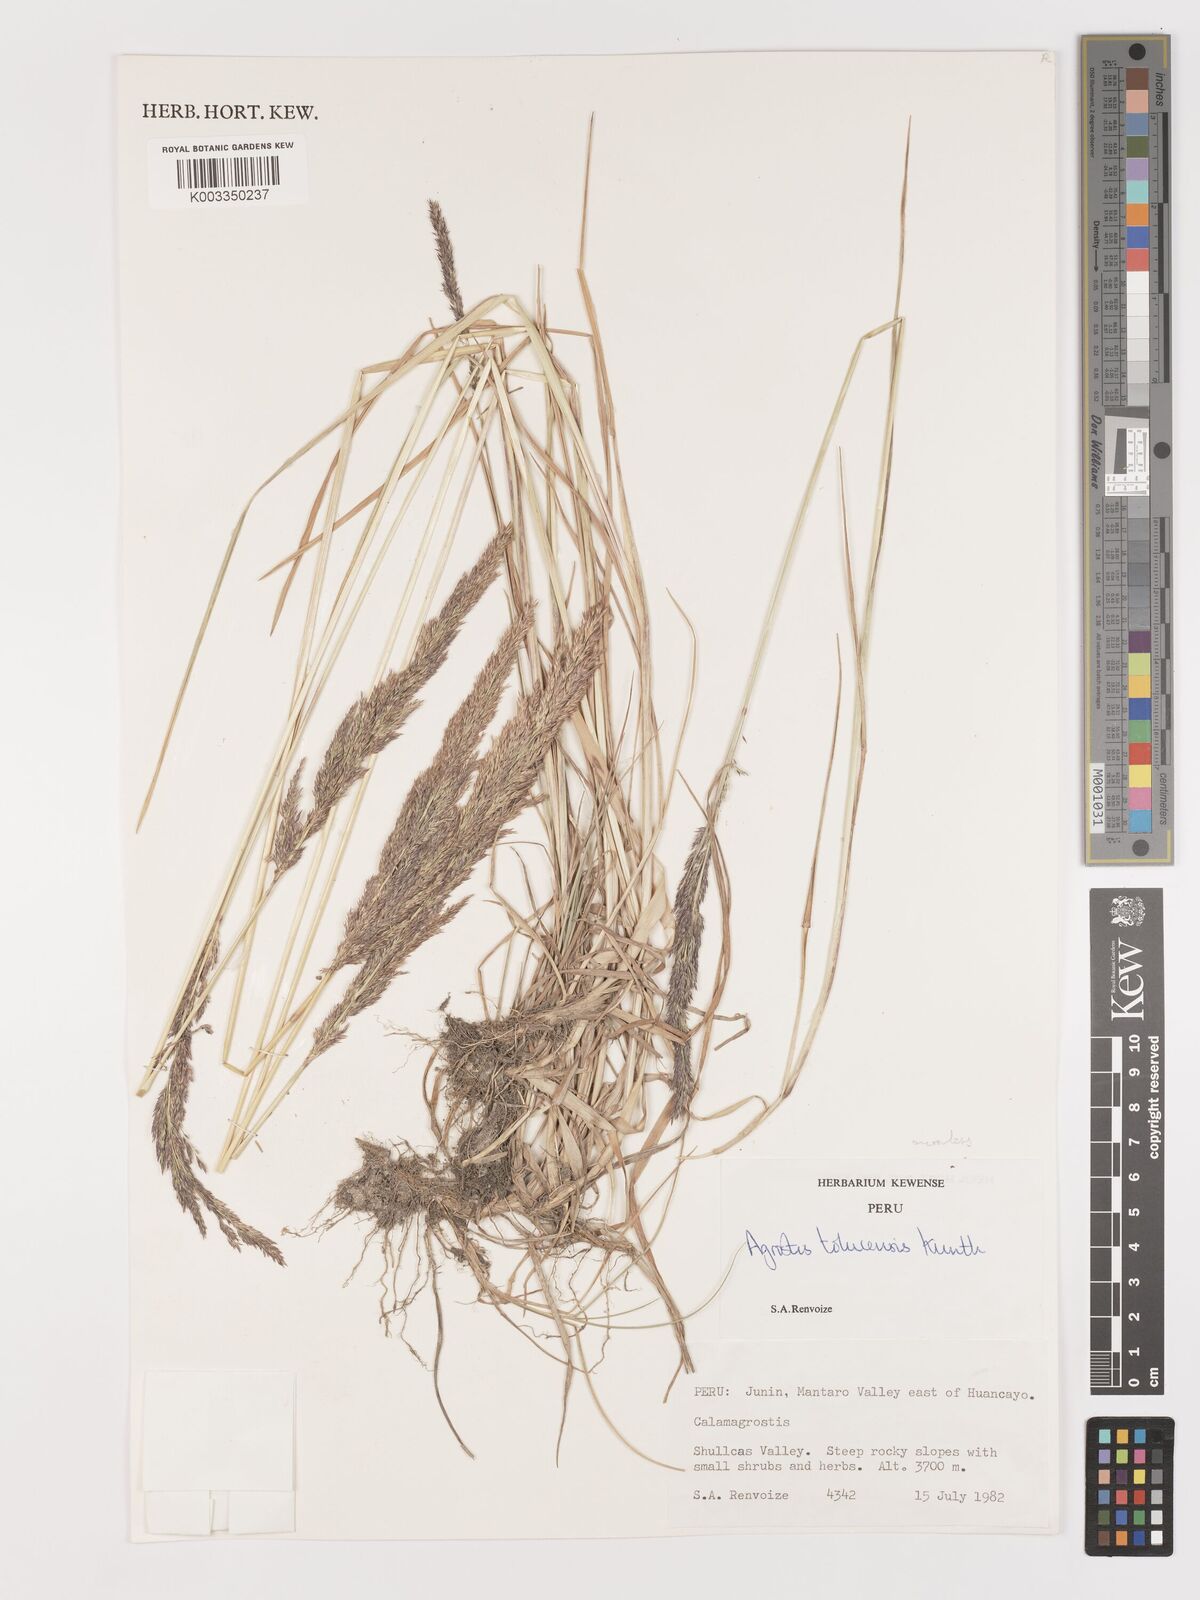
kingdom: Plantae
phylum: Tracheophyta
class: Liliopsida
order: Poales
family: Poaceae
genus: Agrostis
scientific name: Agrostis
